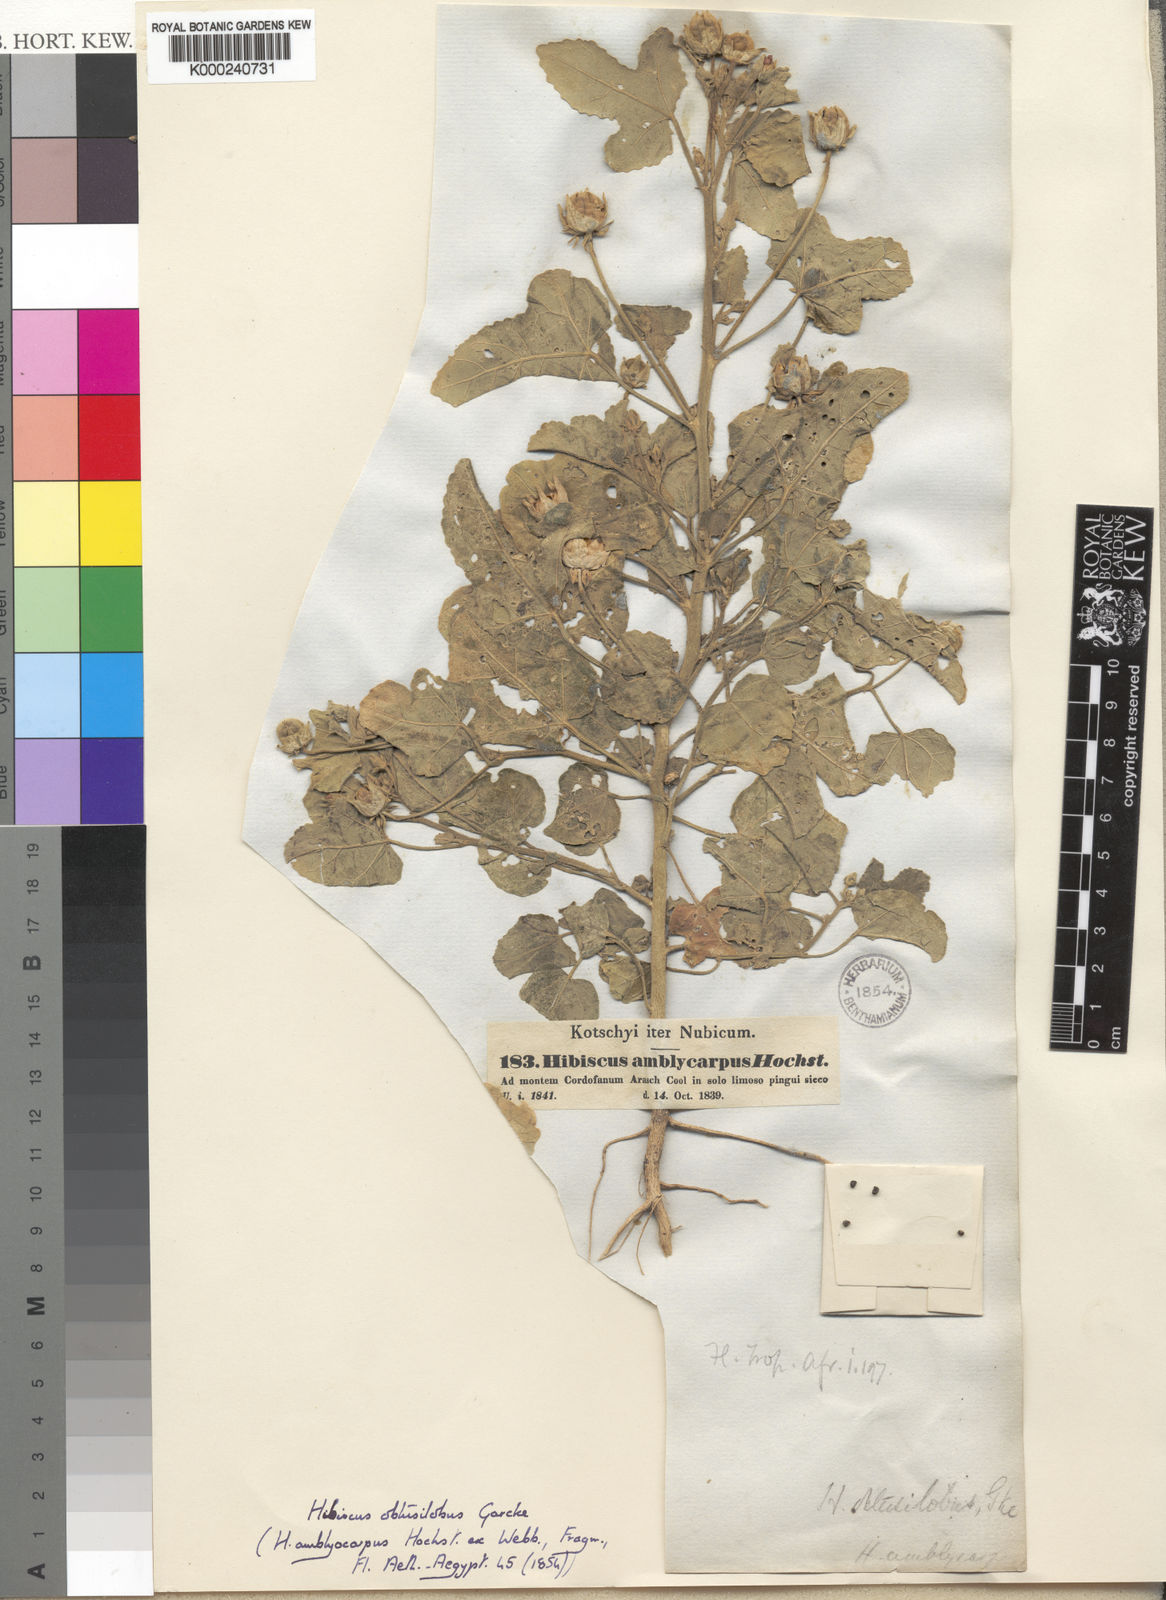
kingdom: Plantae
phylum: Tracheophyta
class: Magnoliopsida
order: Malvales
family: Malvaceae
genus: Hibiscus
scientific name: Hibiscus obtusilobus
